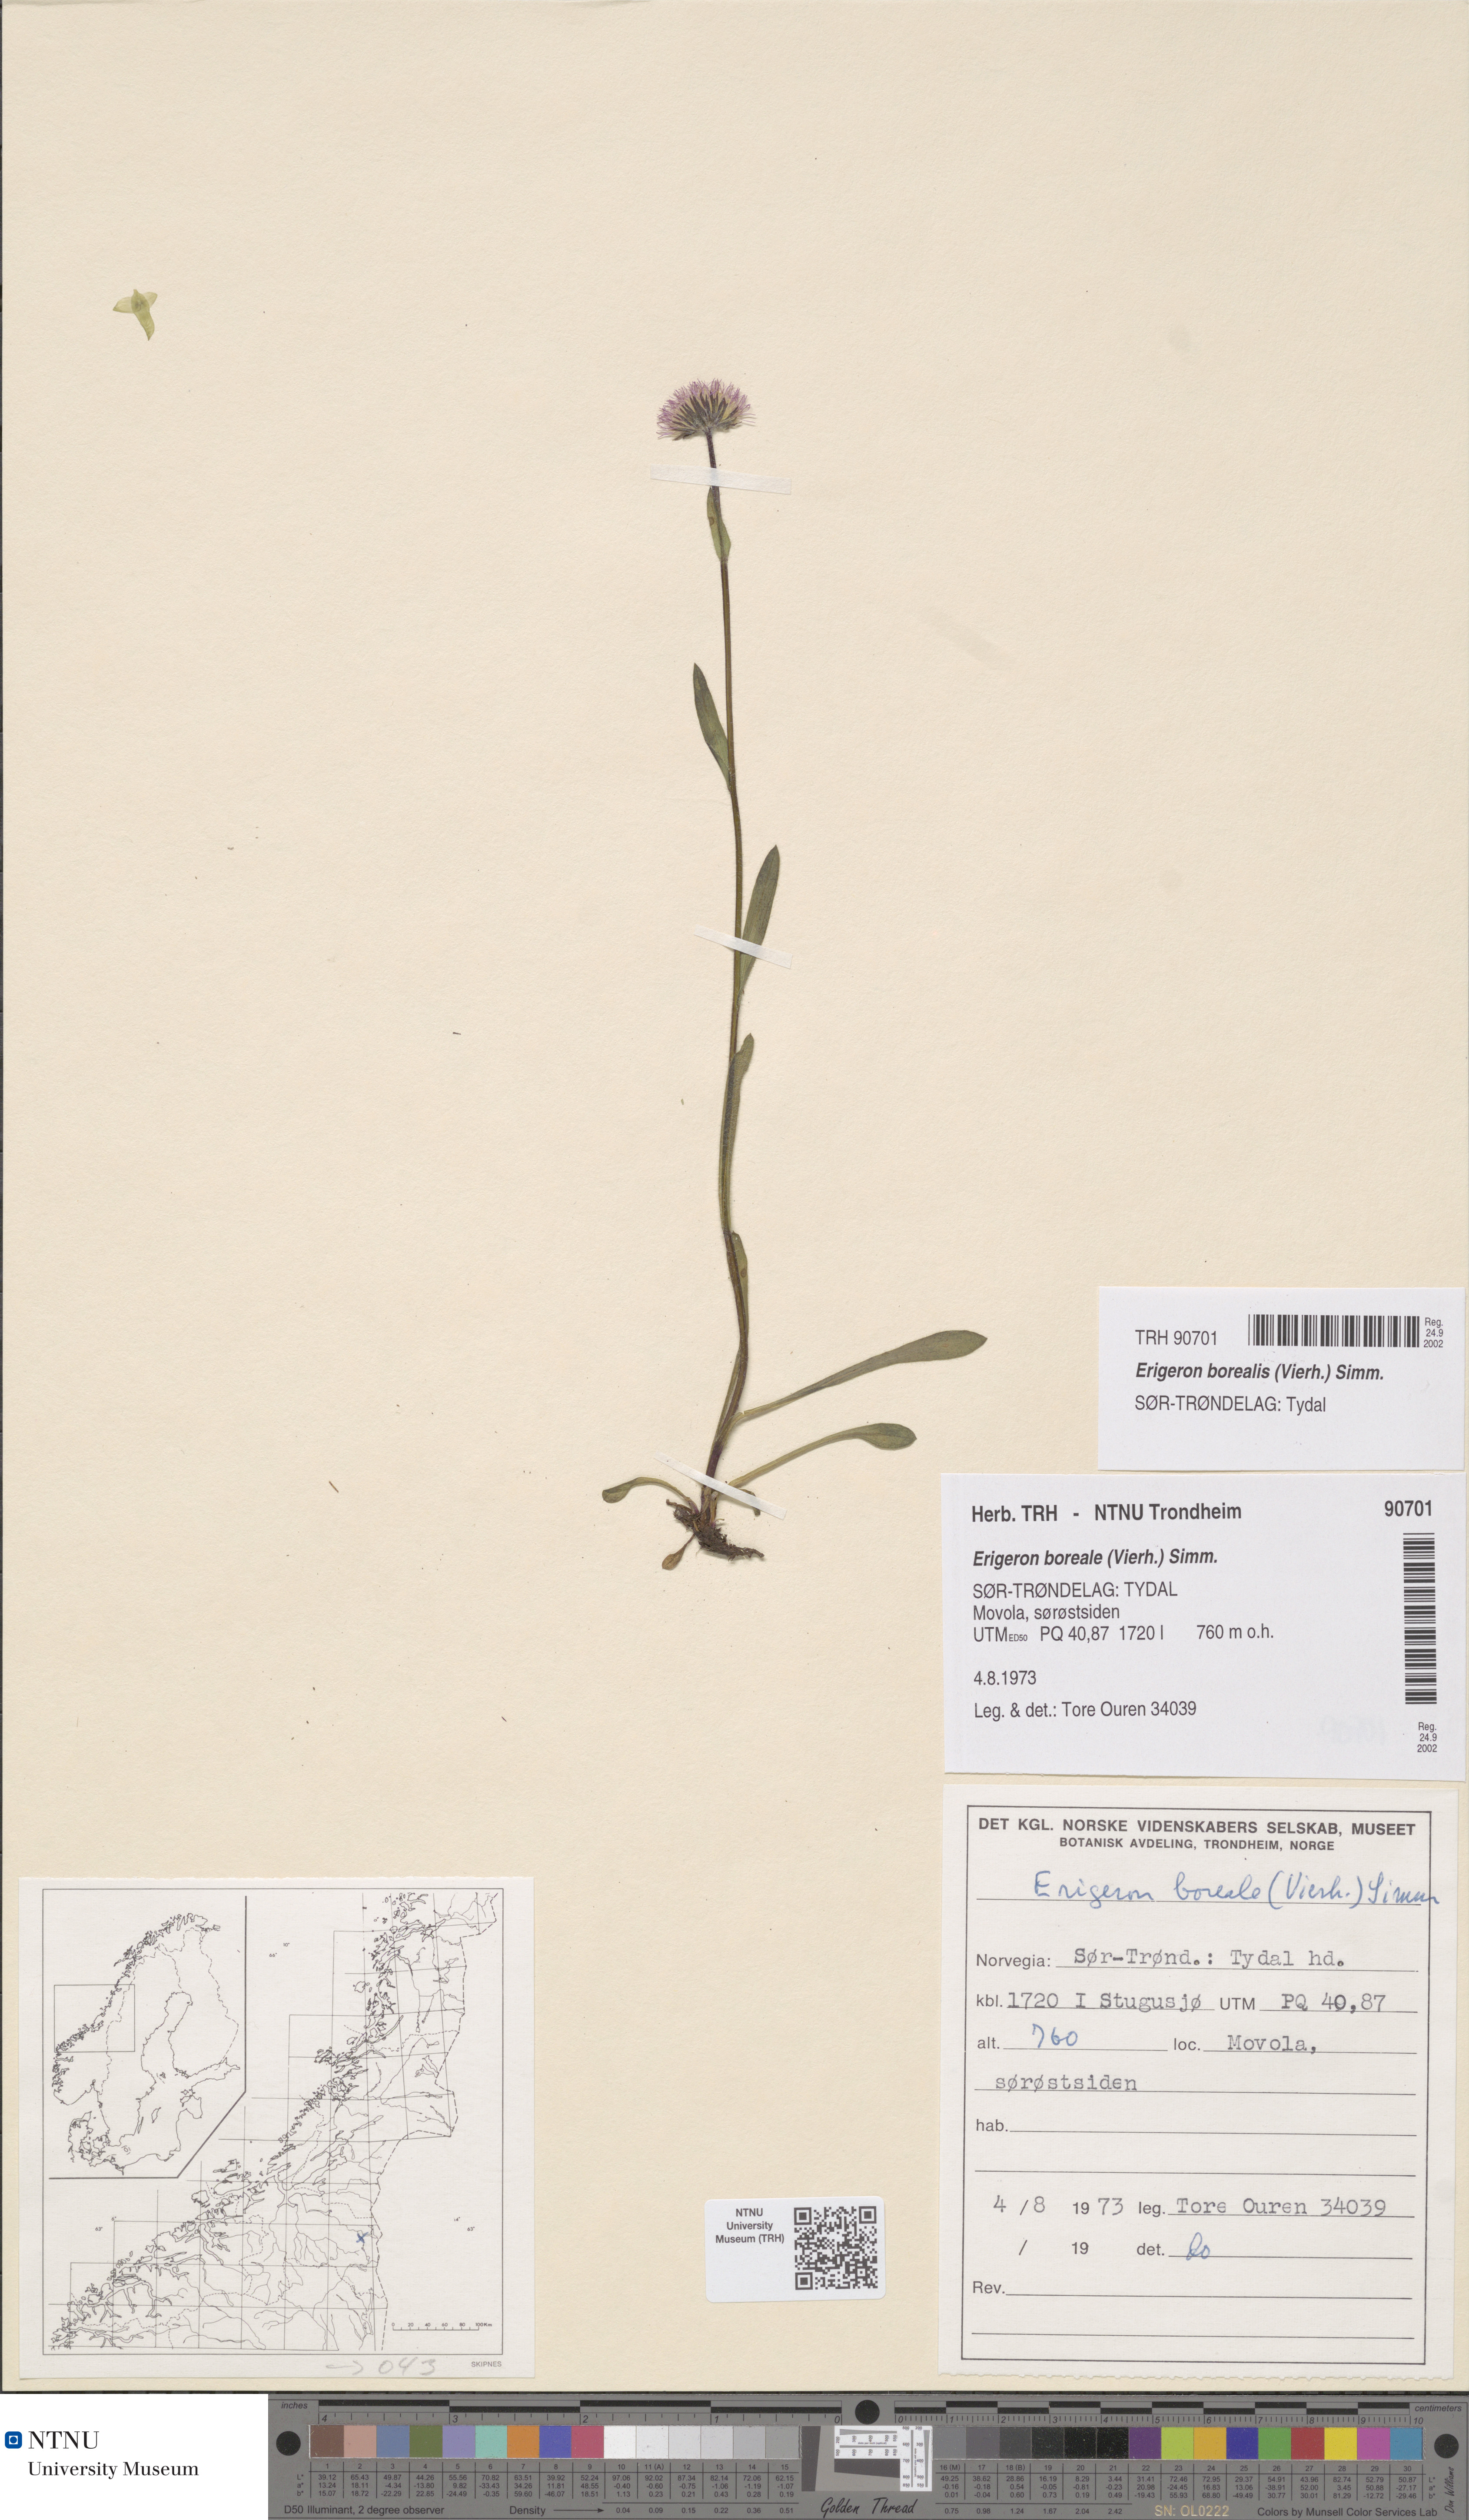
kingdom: Plantae
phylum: Tracheophyta
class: Magnoliopsida
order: Asterales
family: Asteraceae
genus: Erigeron
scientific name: Erigeron borealis
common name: Alpine fleabane
